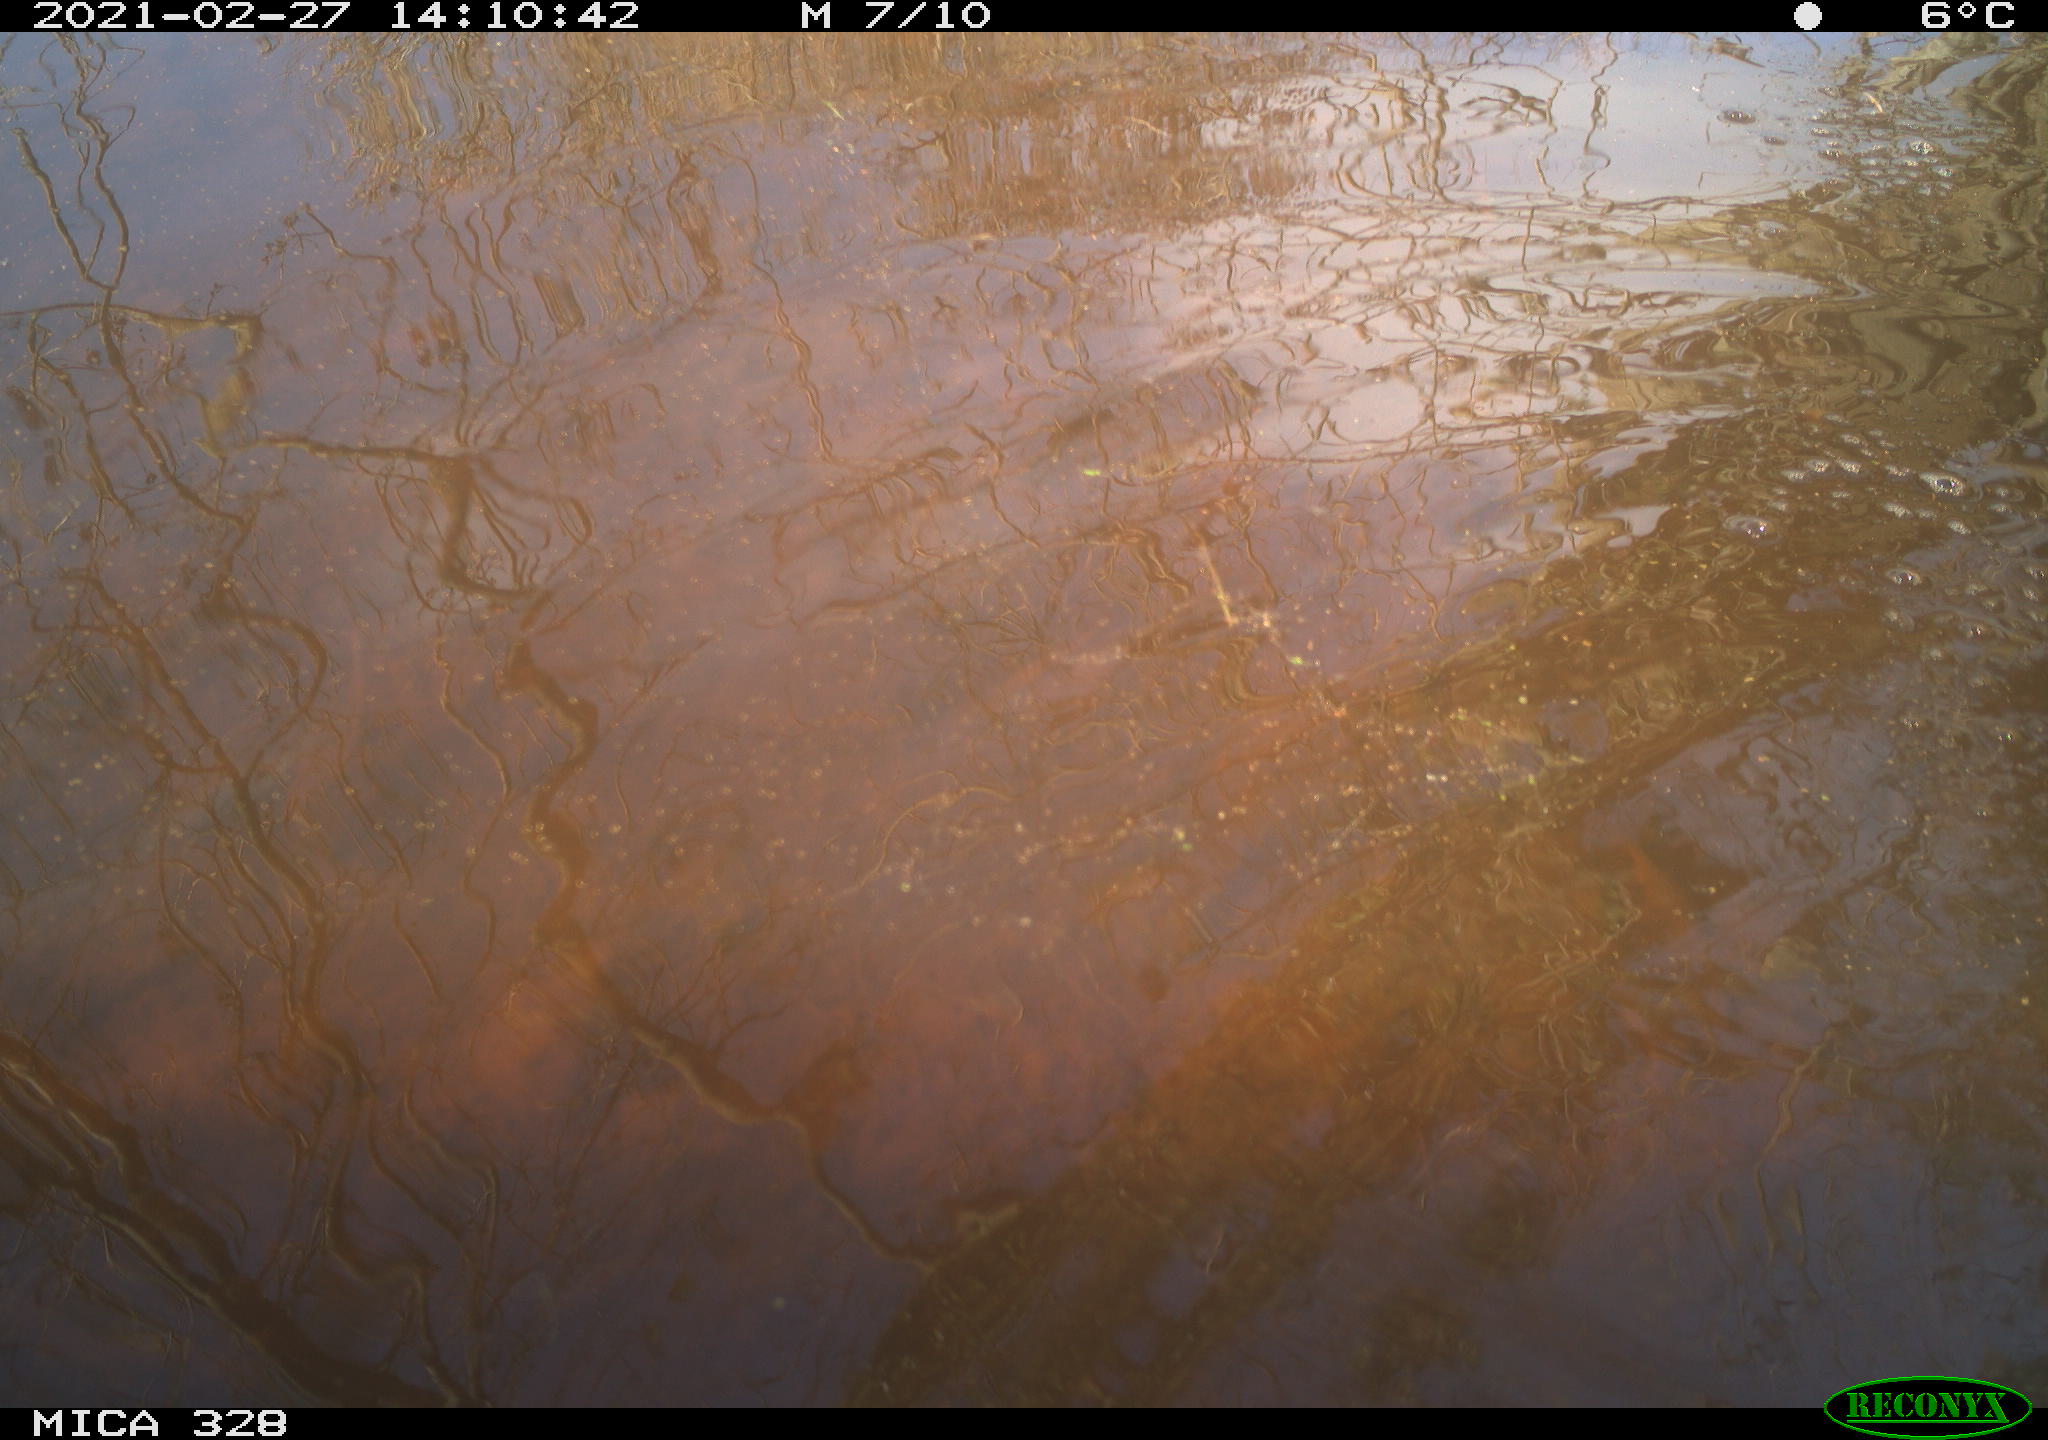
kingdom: Animalia
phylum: Chordata
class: Aves
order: Pelecaniformes
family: Ardeidae
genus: Ardea
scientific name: Ardea alba
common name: Great egret
